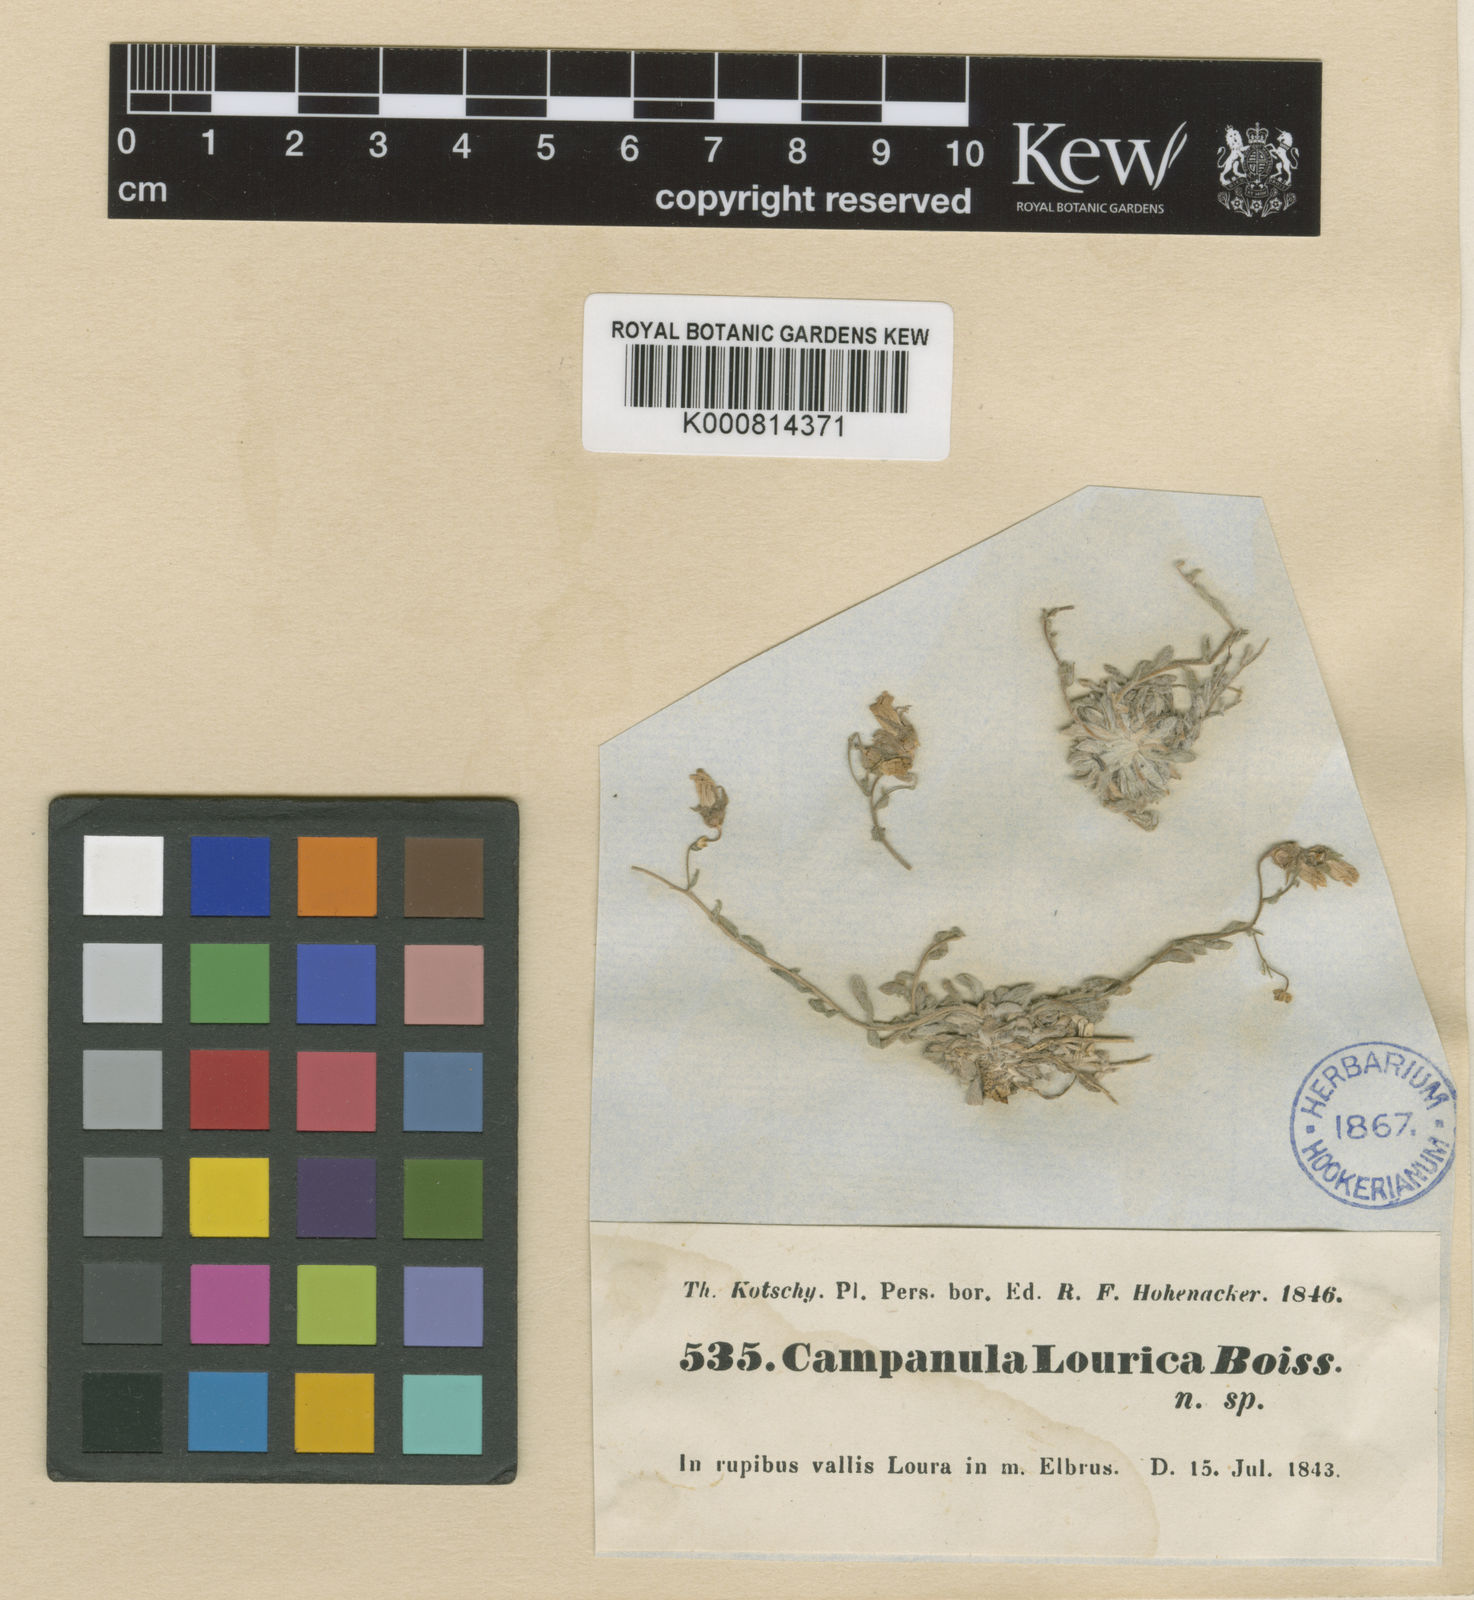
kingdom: Plantae
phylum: Tracheophyta
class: Magnoliopsida
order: Asterales
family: Campanulaceae
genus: Campanula
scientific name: Campanula lourica
